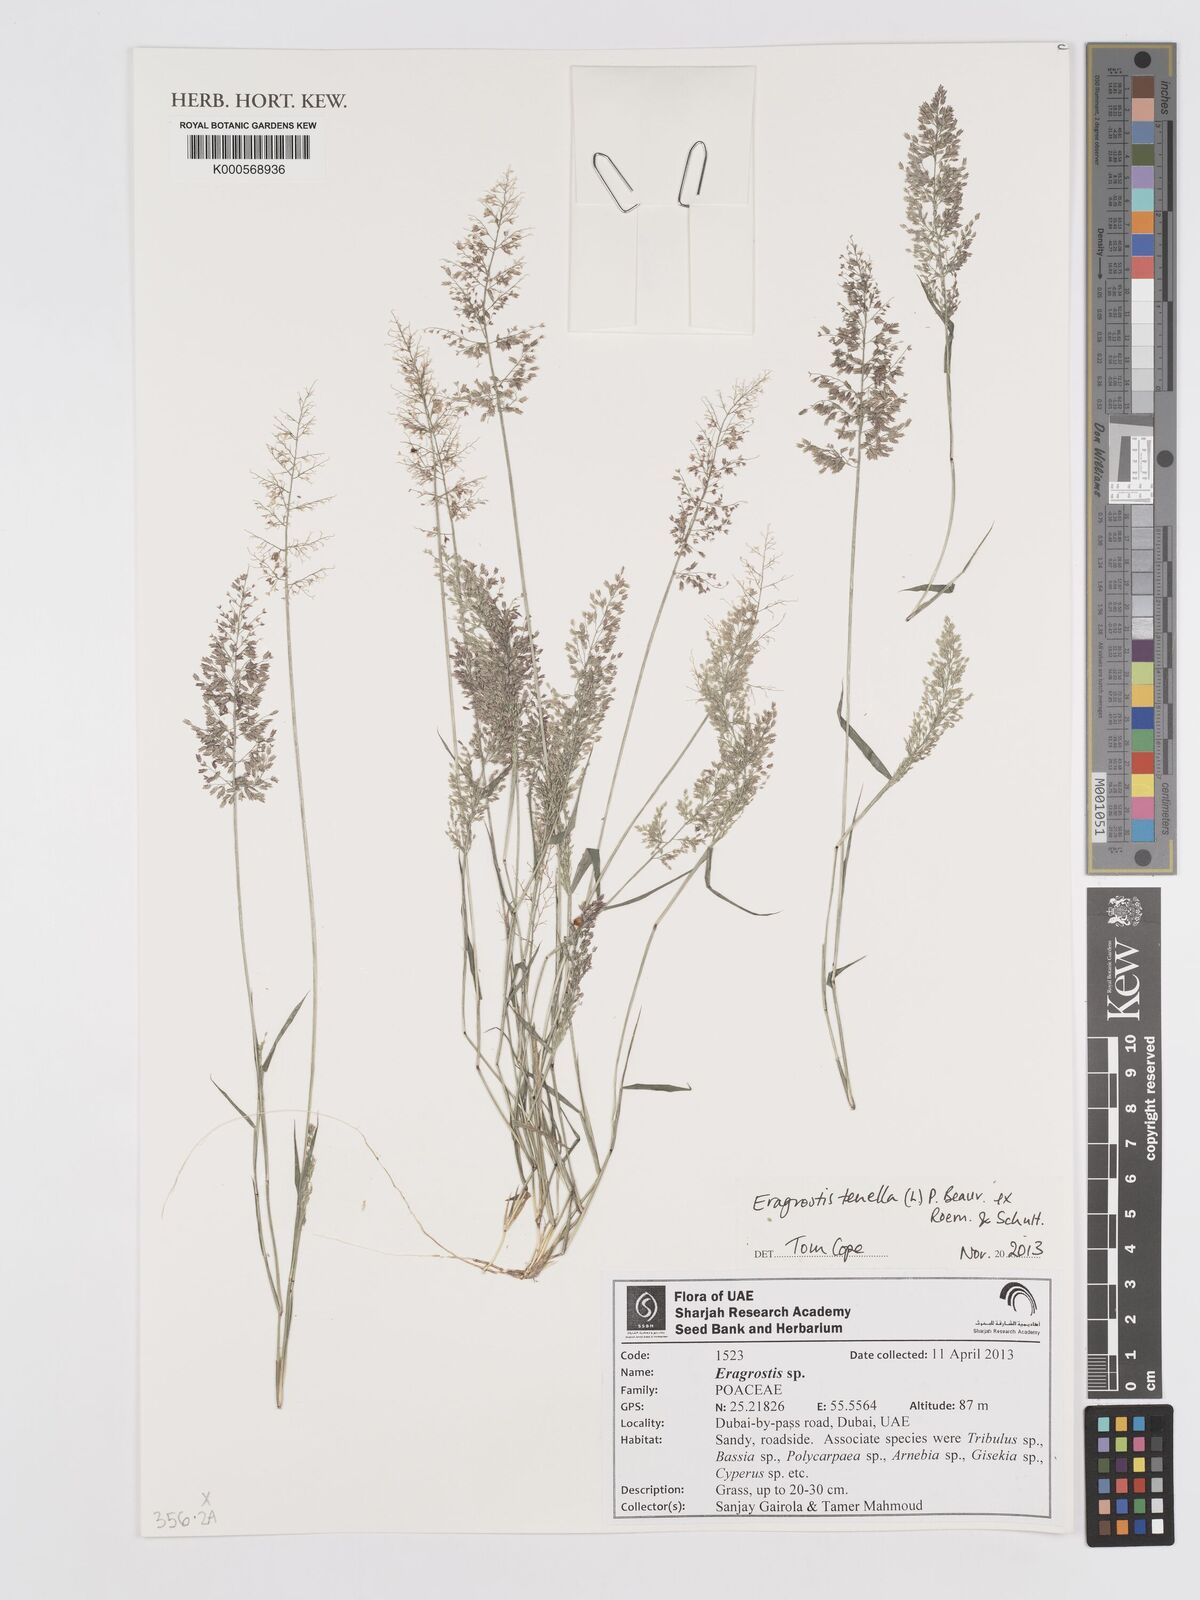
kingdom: Plantae
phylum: Tracheophyta
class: Liliopsida
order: Poales
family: Poaceae
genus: Eragrostis
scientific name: Eragrostis tenella
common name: Japanese lovegrass
